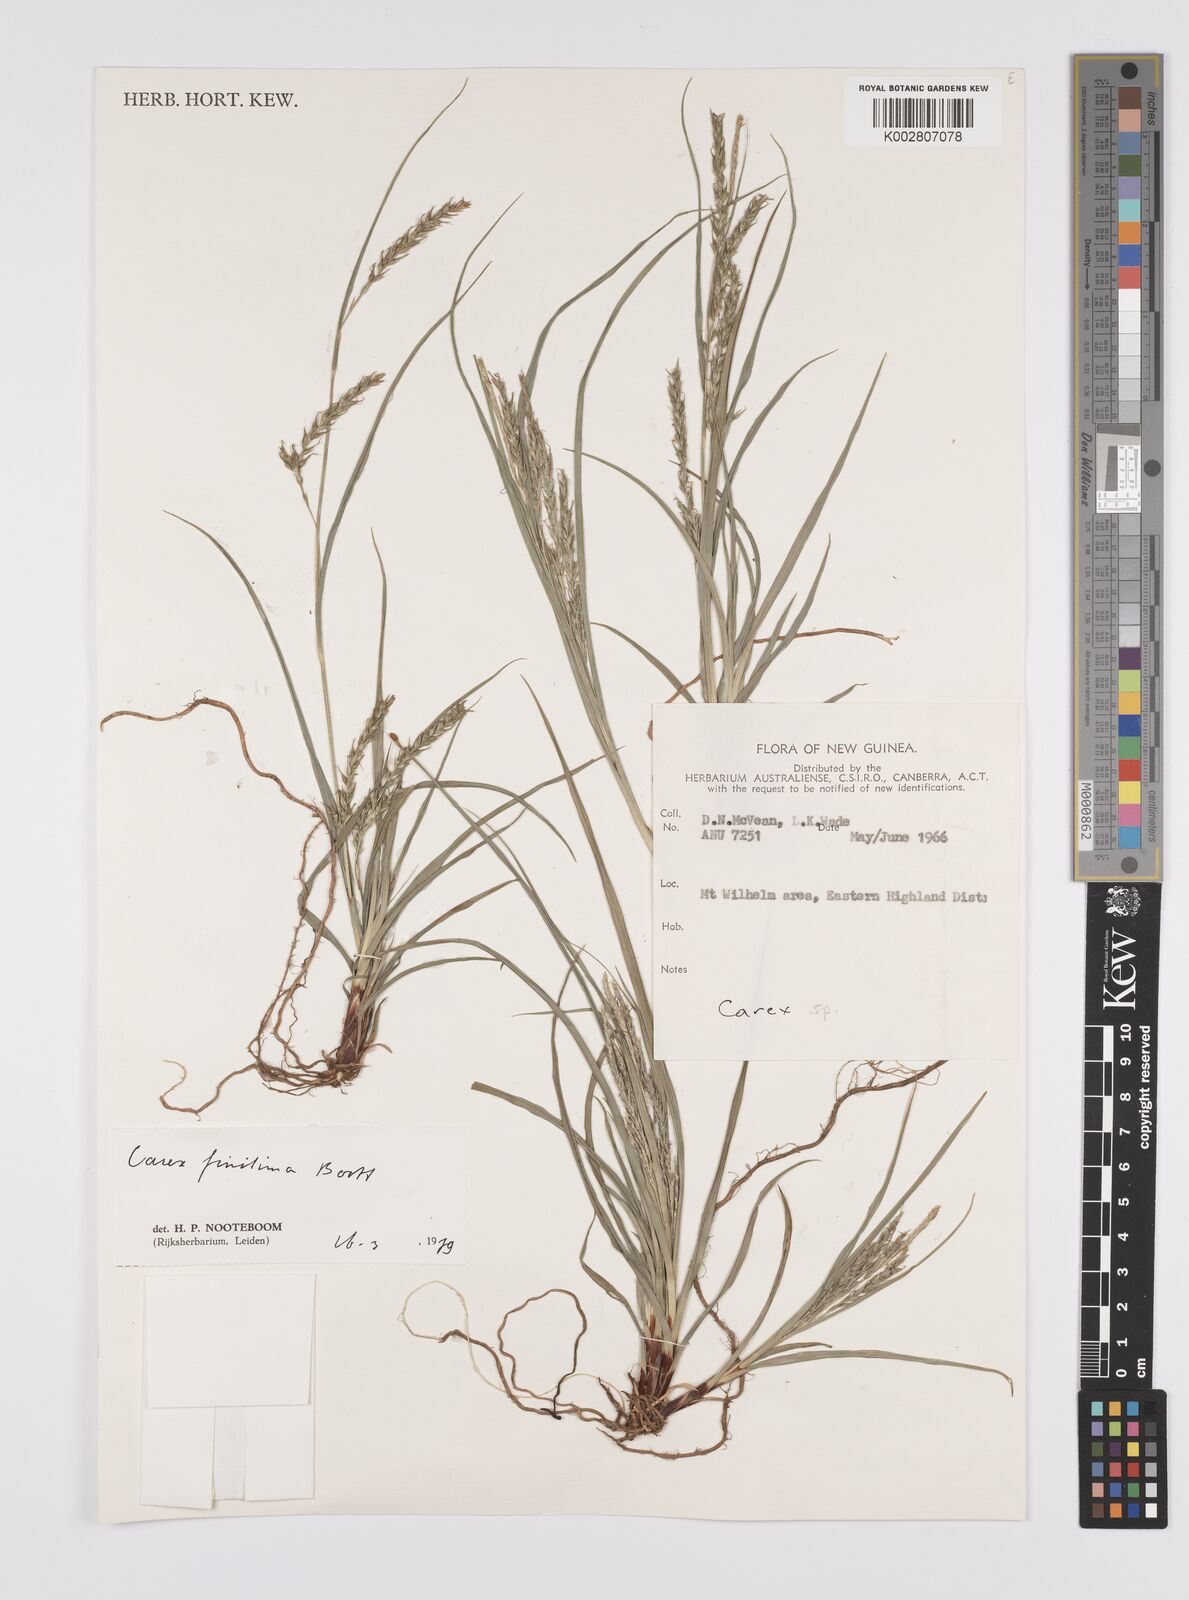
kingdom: Plantae
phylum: Tracheophyta
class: Liliopsida
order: Poales
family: Cyperaceae
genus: Carex
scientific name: Carex finitima
